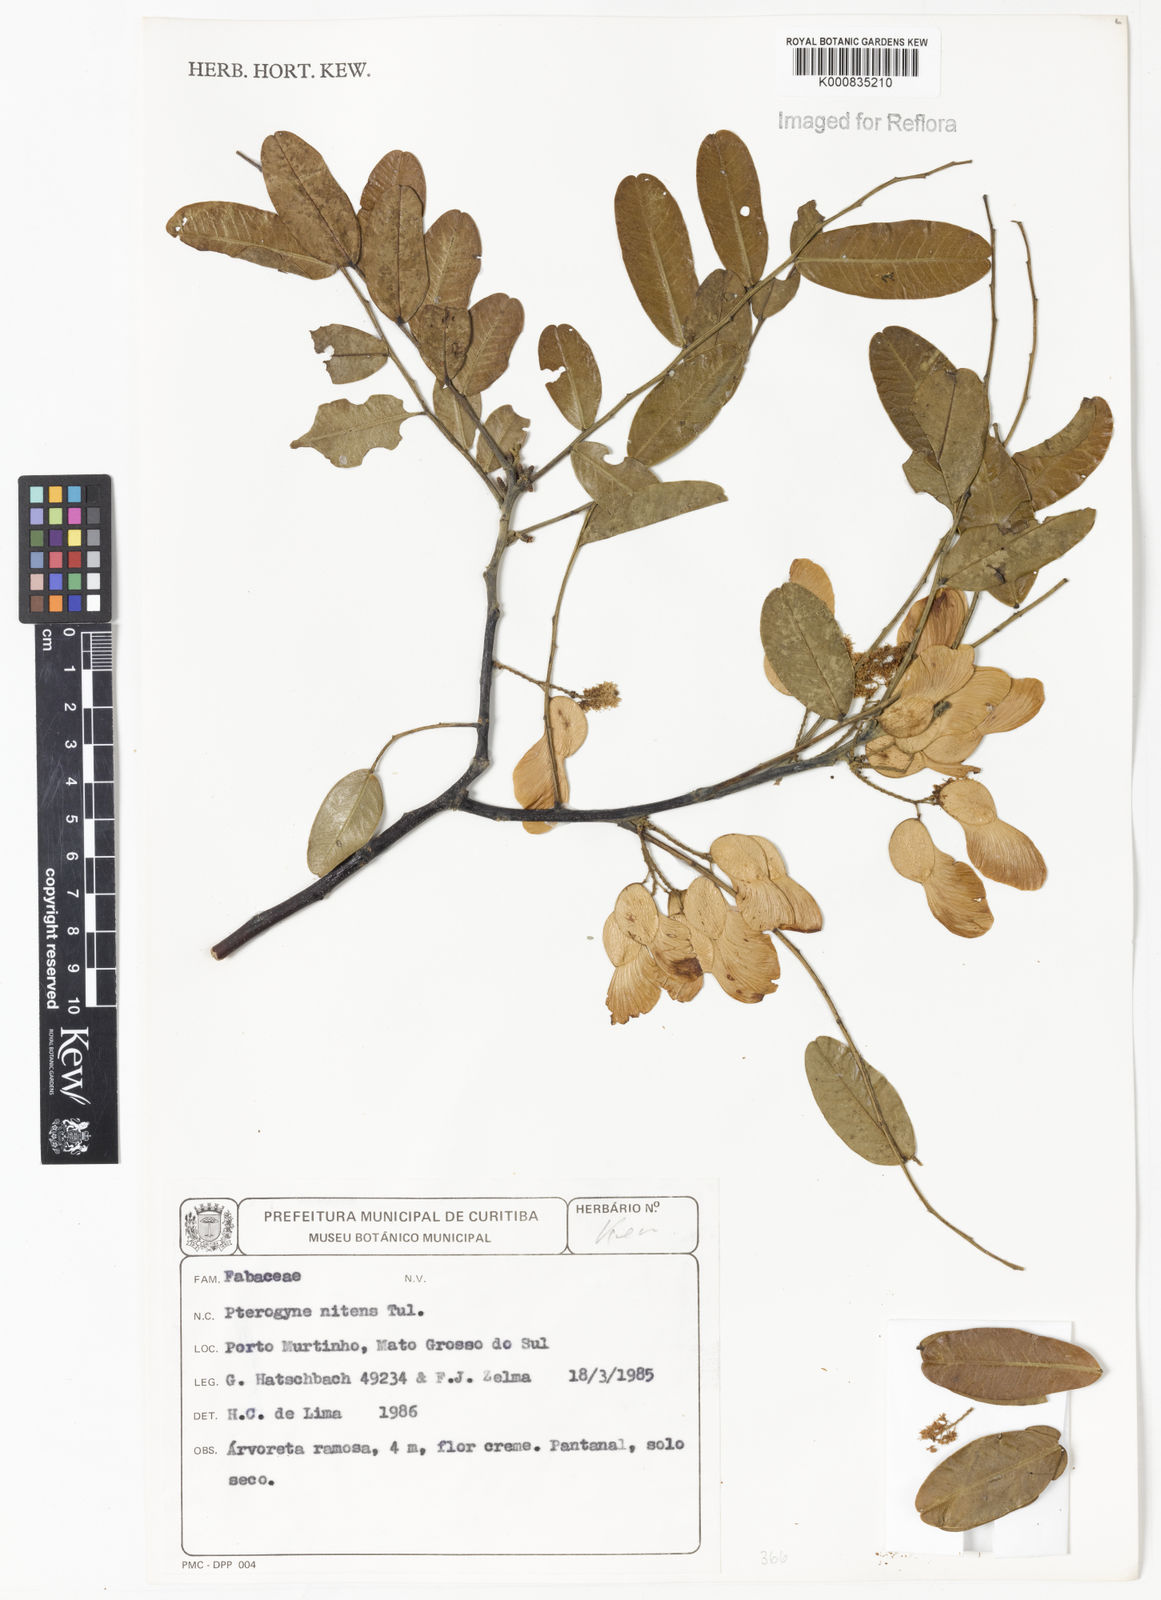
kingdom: Plantae
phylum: Tracheophyta
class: Magnoliopsida
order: Fabales
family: Fabaceae
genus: Pterogyne
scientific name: Pterogyne nitens
